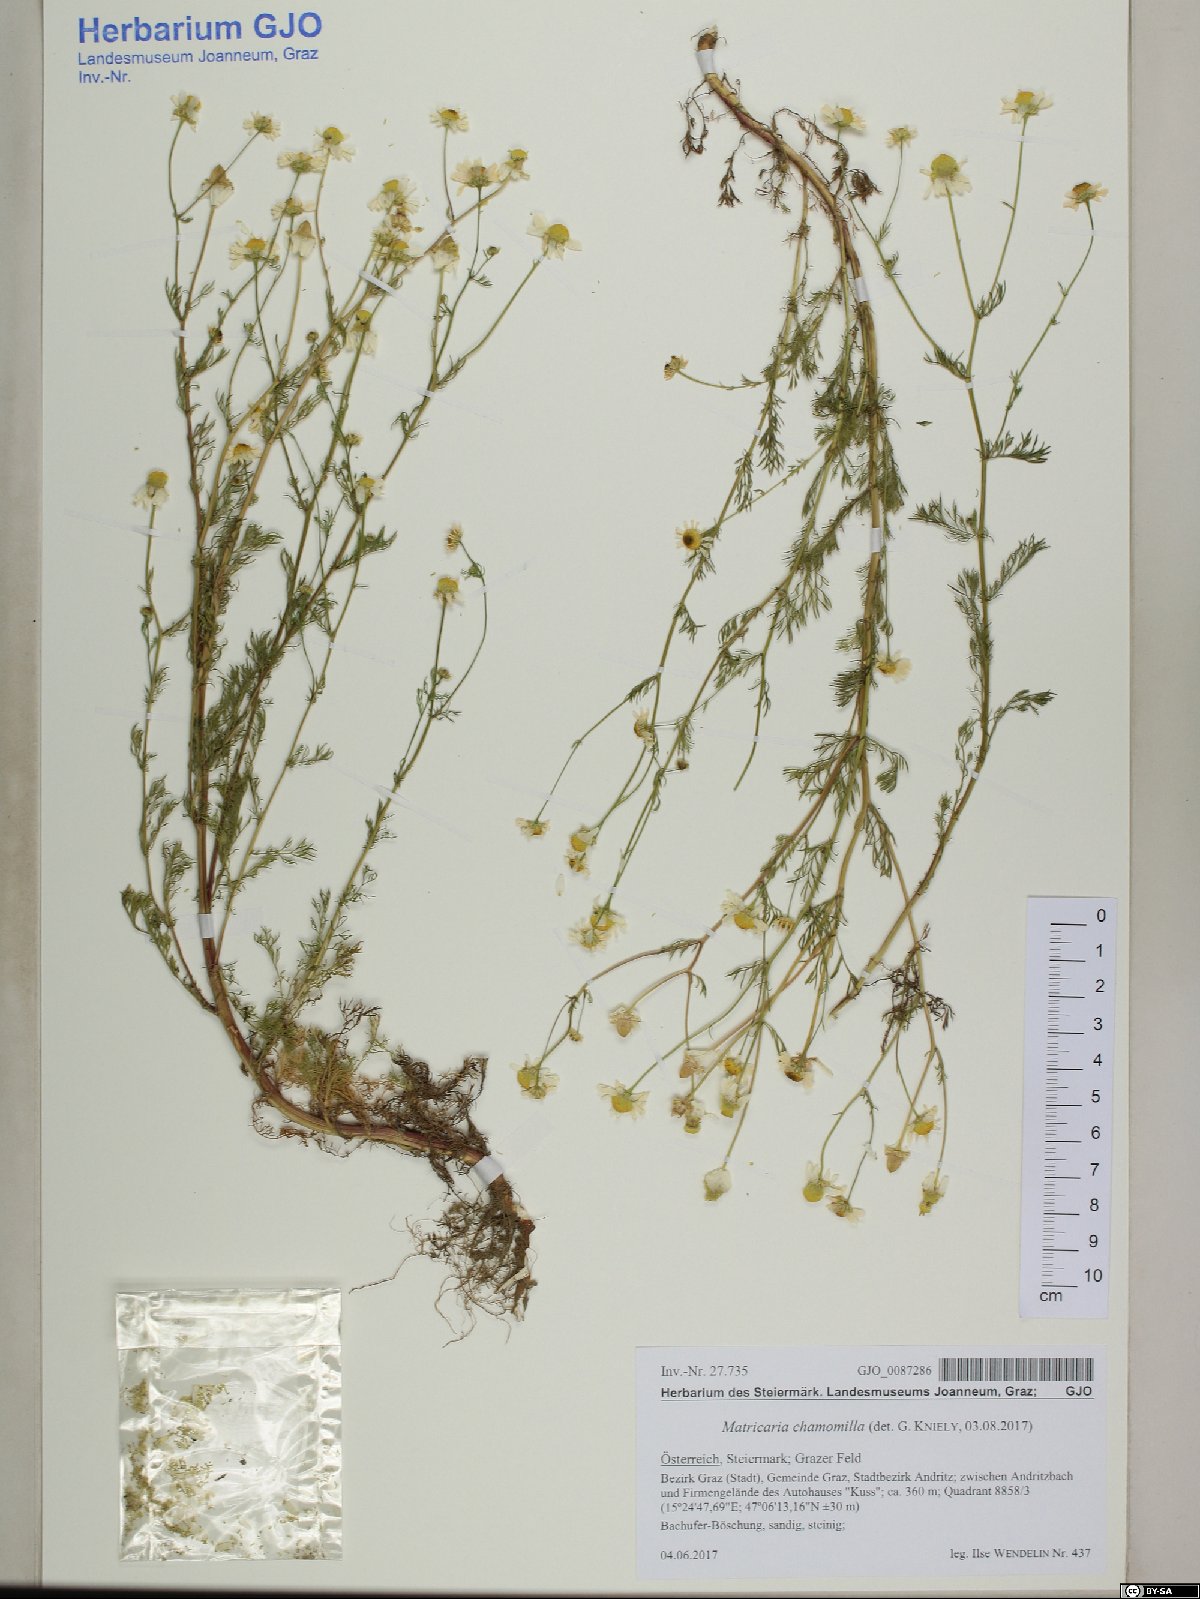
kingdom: Plantae
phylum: Tracheophyta
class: Magnoliopsida
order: Asterales
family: Asteraceae
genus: Matricaria
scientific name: Matricaria chamomilla
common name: Scented mayweed
